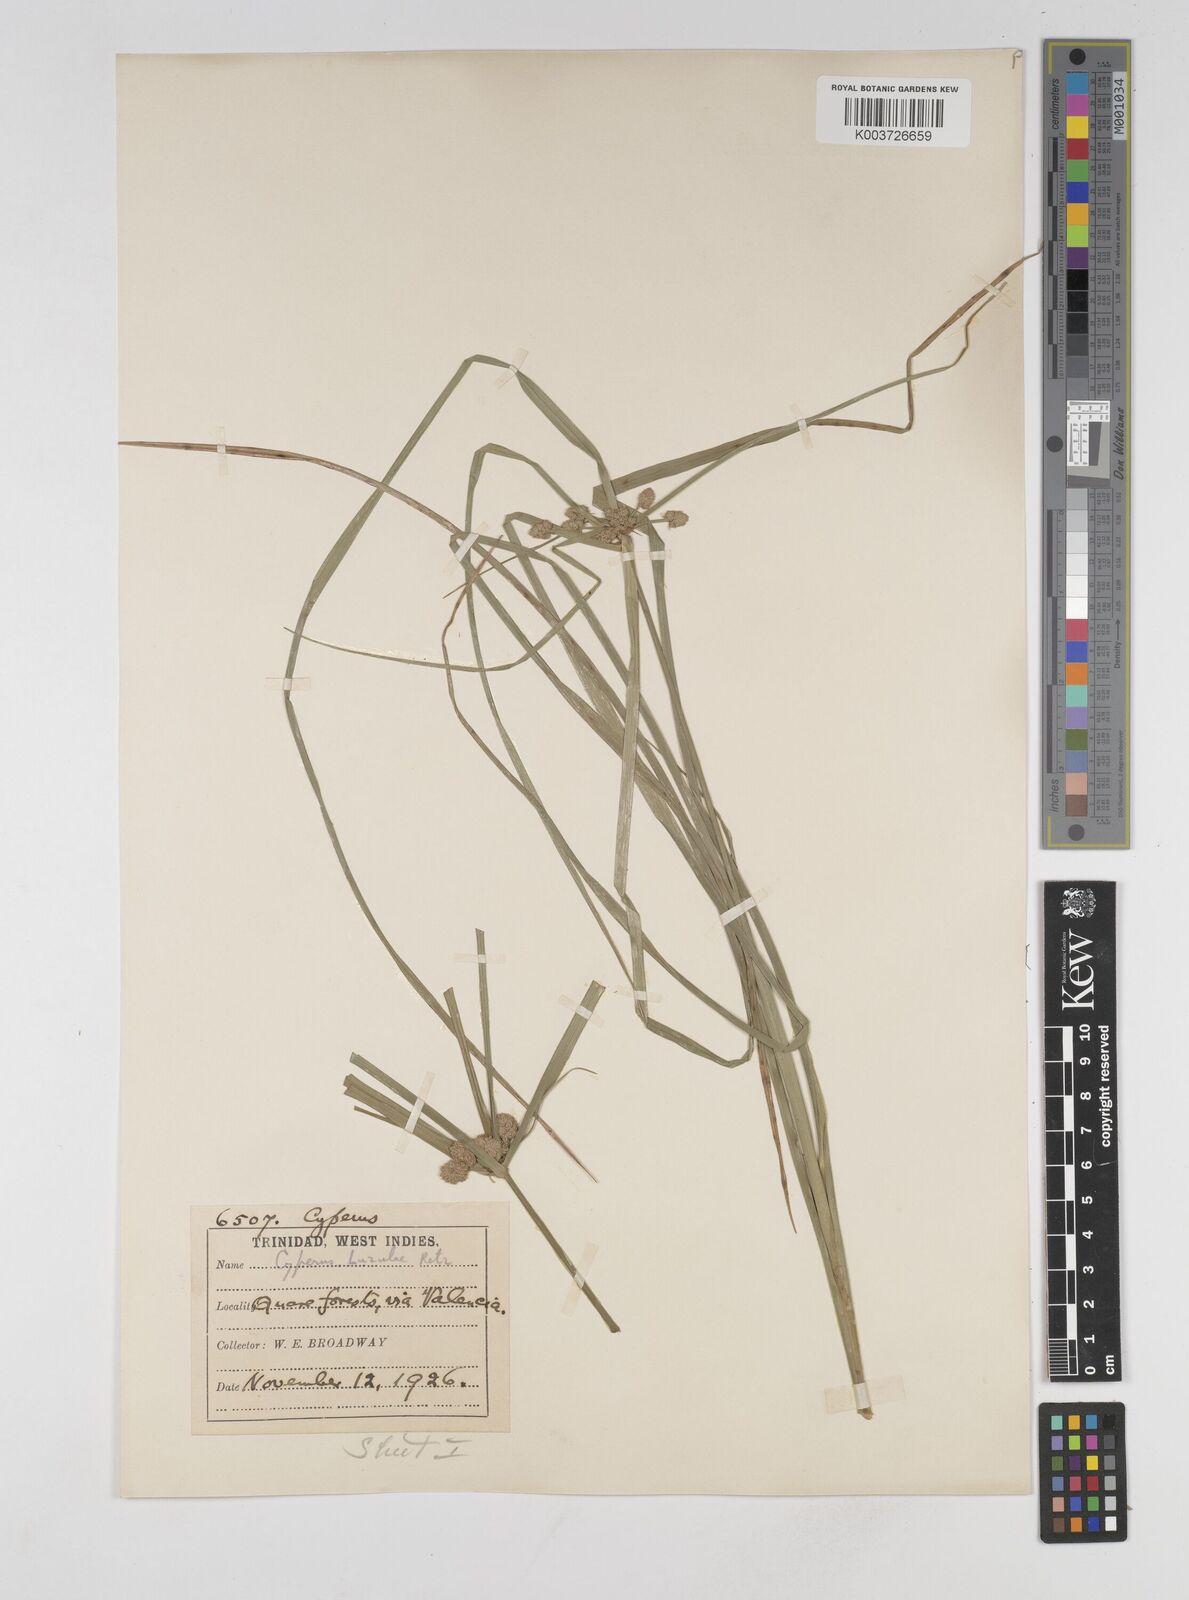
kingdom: Plantae
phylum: Tracheophyta
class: Liliopsida
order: Poales
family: Cyperaceae
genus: Cyperus
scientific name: Cyperus luzulae
